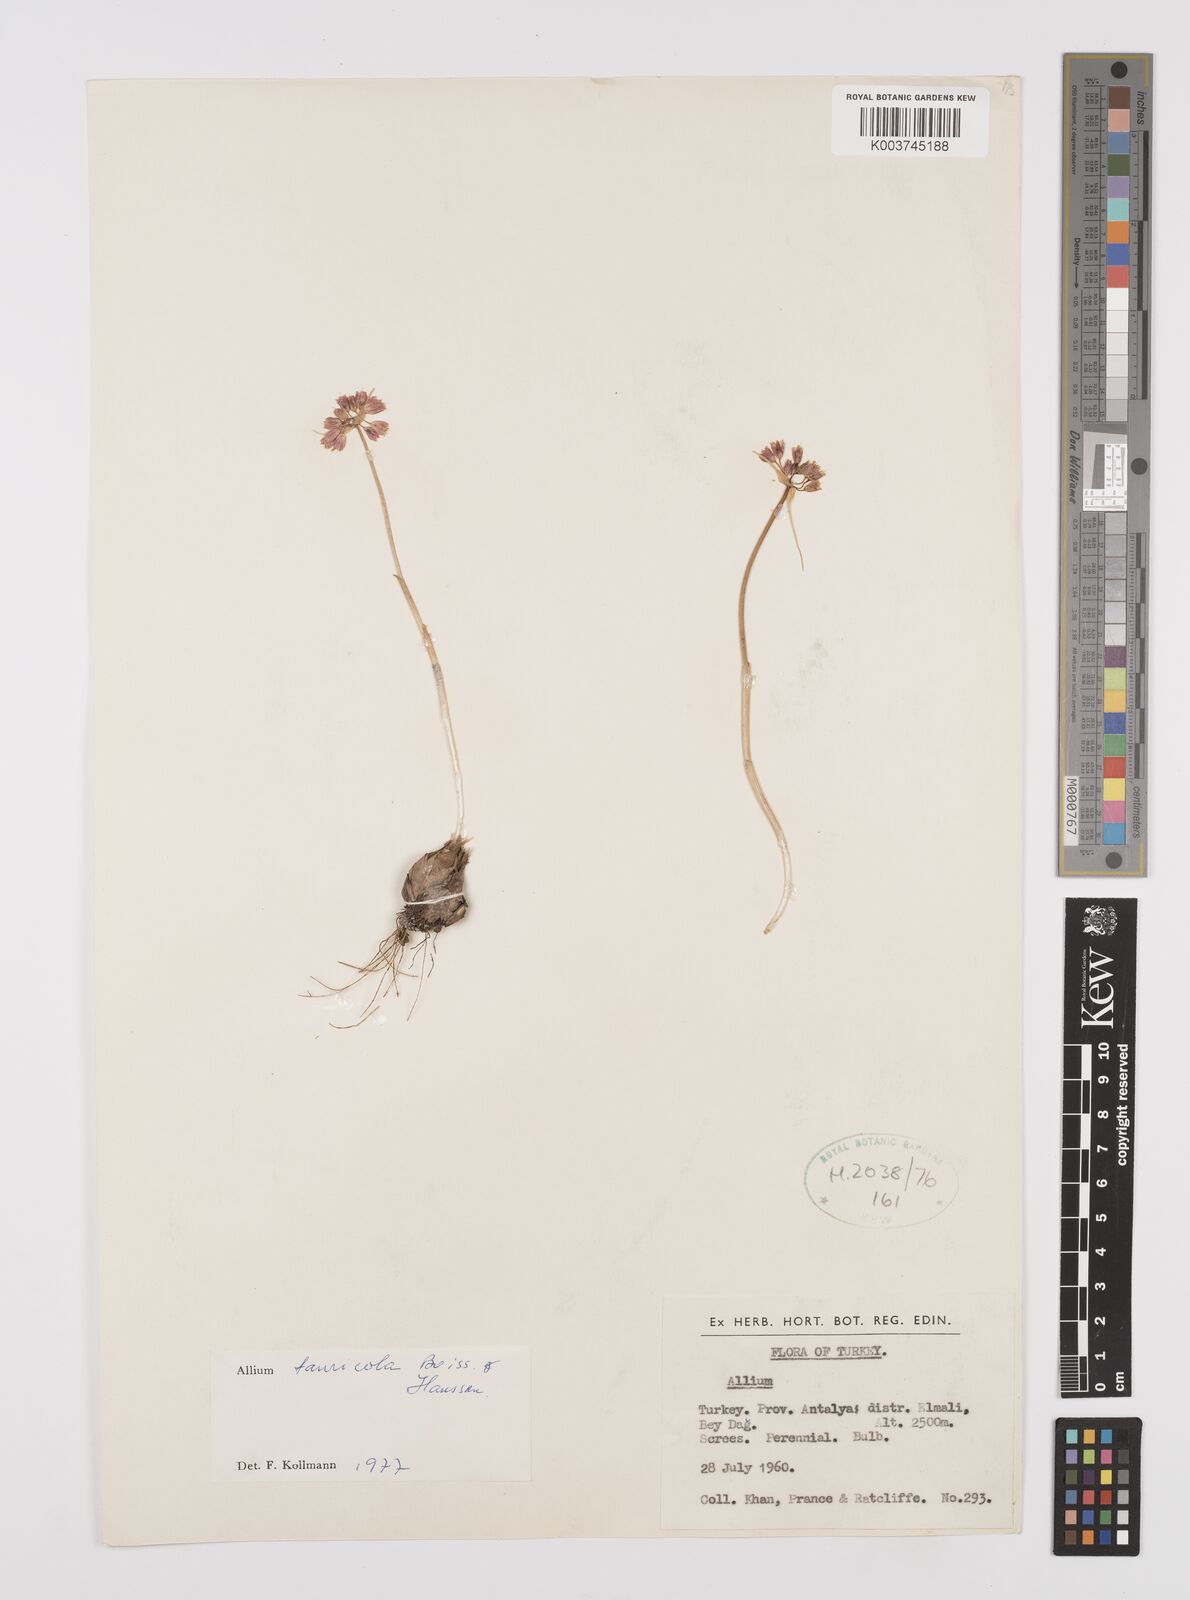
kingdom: Plantae
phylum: Tracheophyta
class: Liliopsida
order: Asparagales
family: Amaryllidaceae
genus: Allium
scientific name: Allium tauricola
